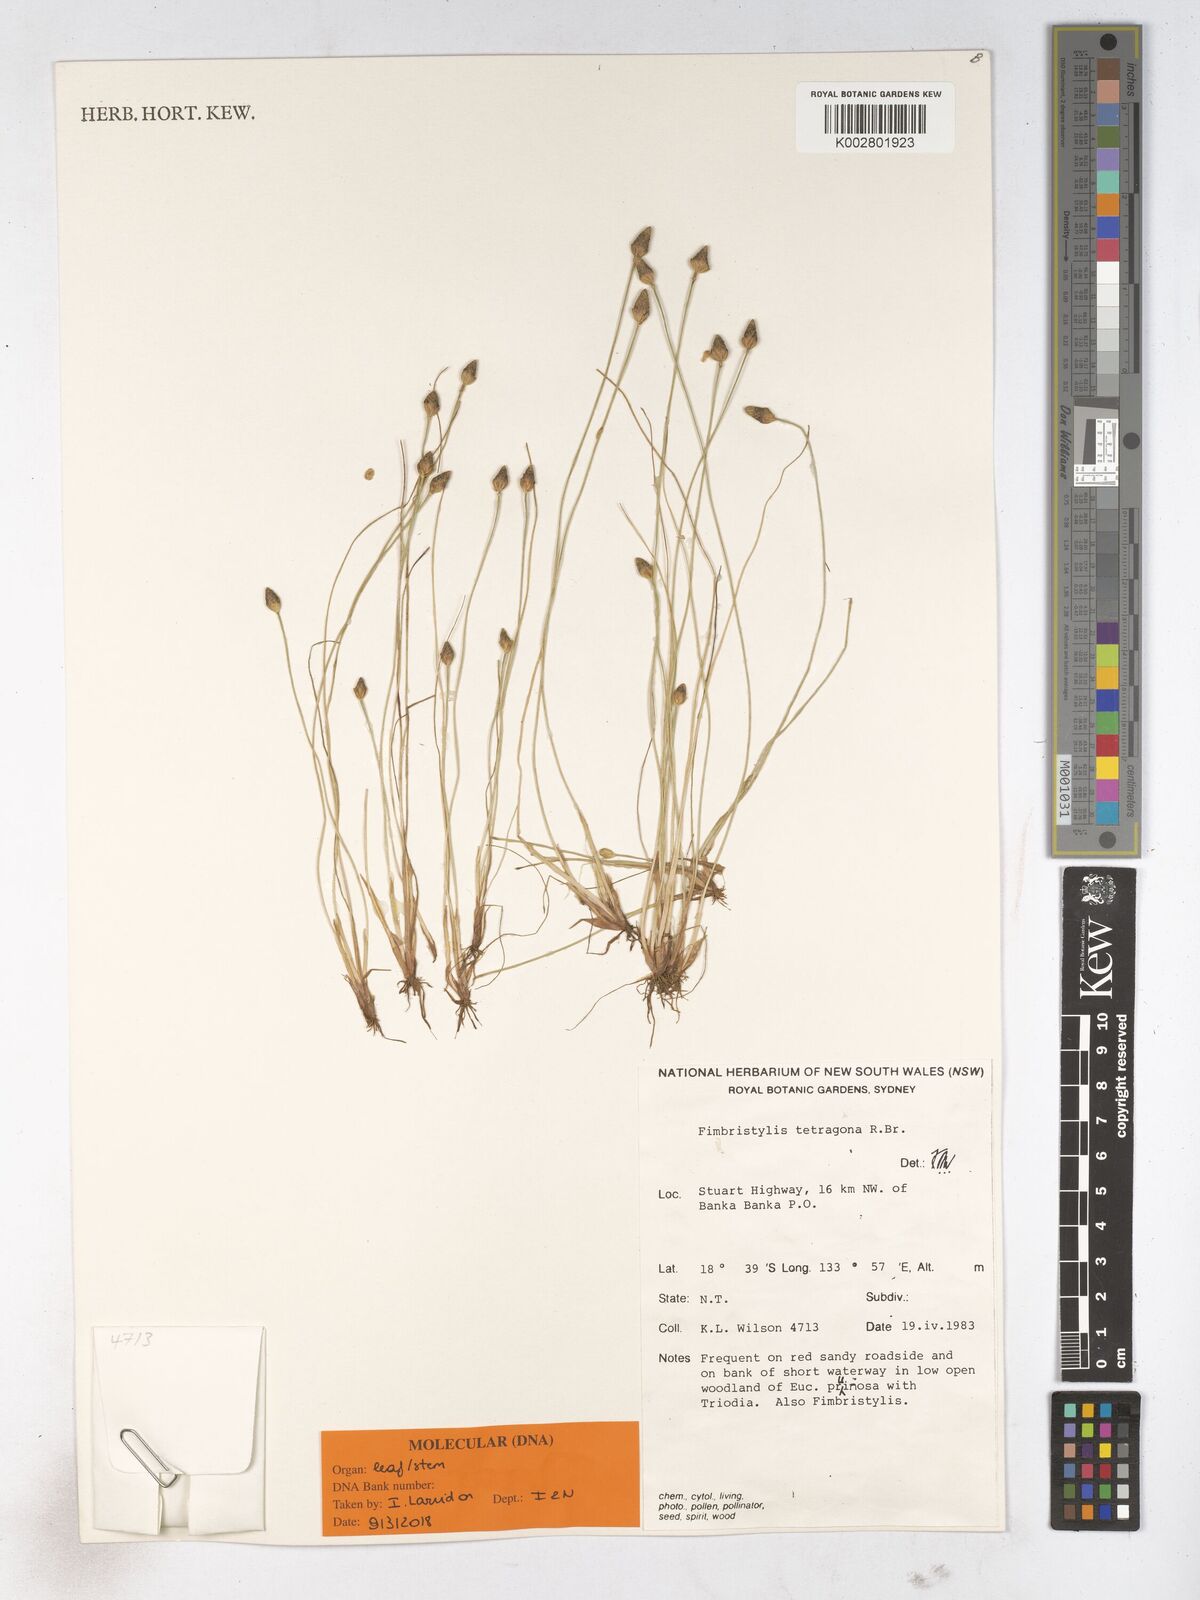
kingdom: Plantae
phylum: Tracheophyta
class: Liliopsida
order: Poales
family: Cyperaceae
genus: Fimbristylis
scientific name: Fimbristylis tetragona
